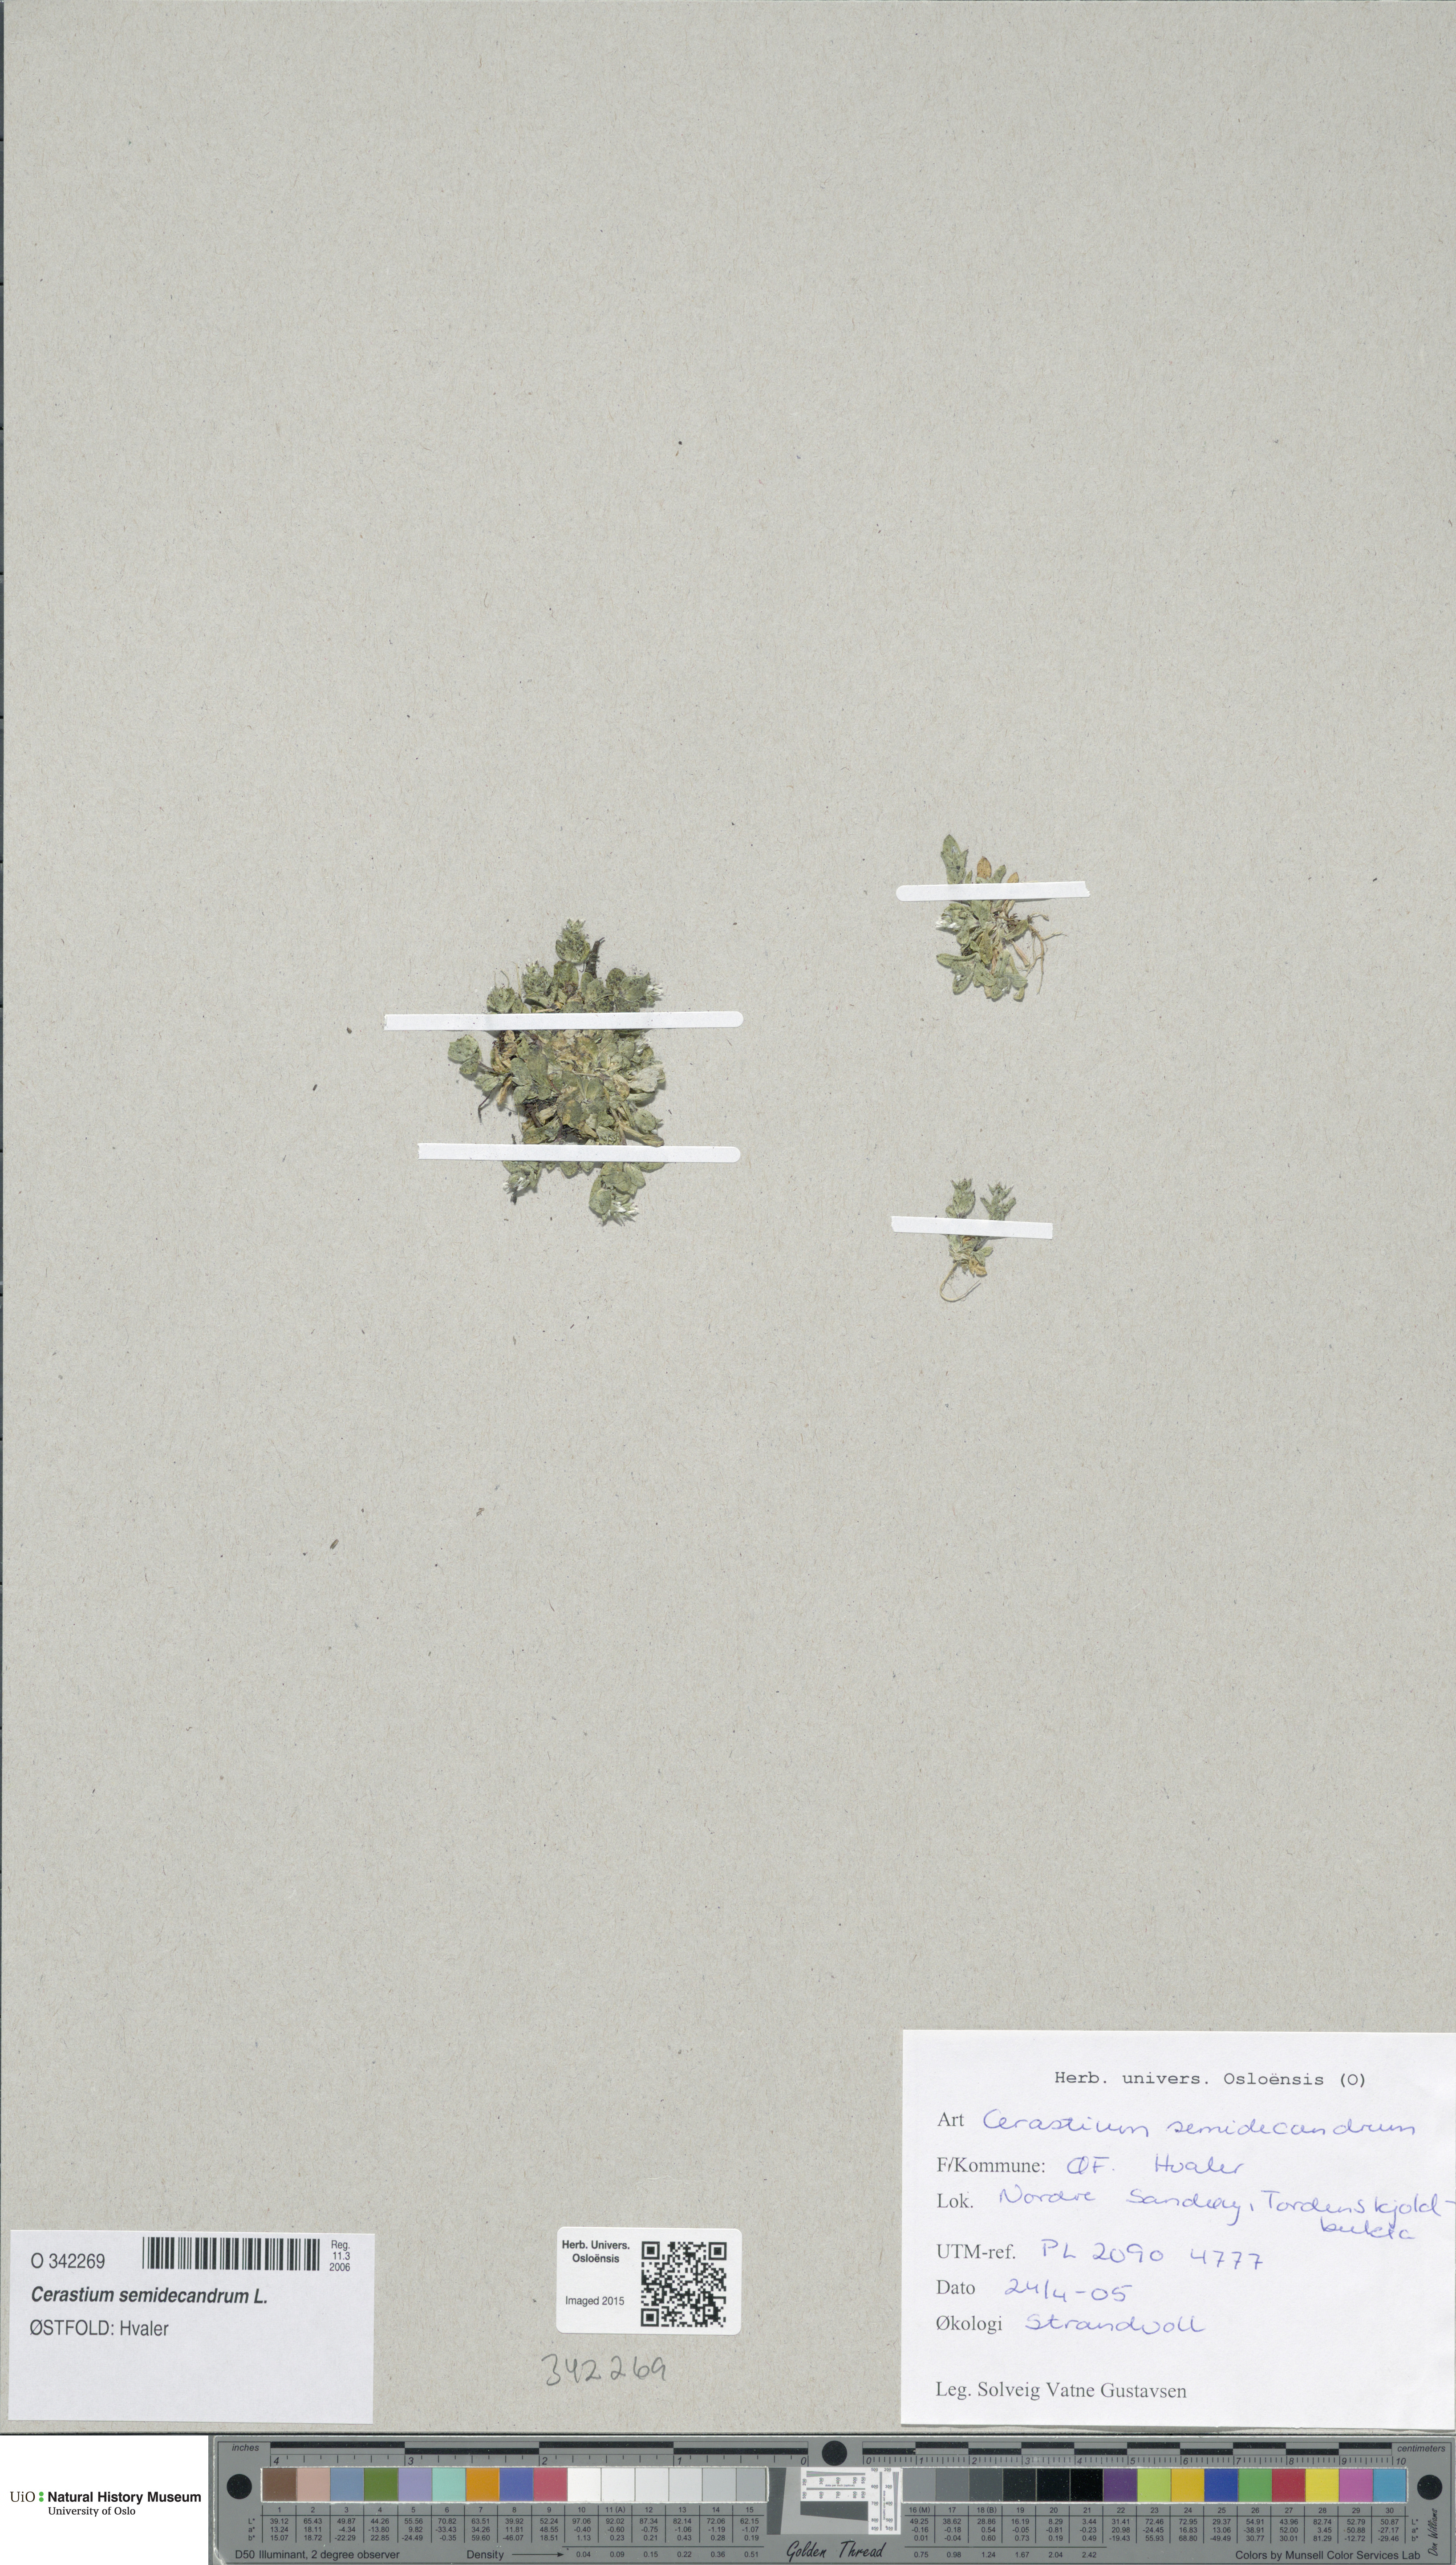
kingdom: Plantae
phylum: Tracheophyta
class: Magnoliopsida
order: Caryophyllales
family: Caryophyllaceae
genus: Cerastium
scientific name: Cerastium semidecandrum
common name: Little mouse-ear
